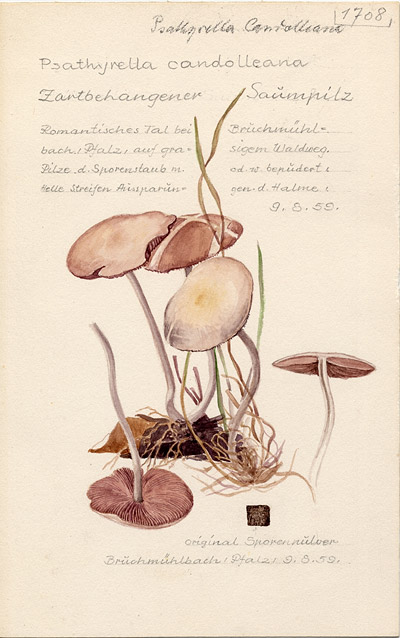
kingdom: Fungi
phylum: Basidiomycota
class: Agaricomycetes
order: Agaricales
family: Psathyrellaceae
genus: Candolleomyces
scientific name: Candolleomyces candolleanus
